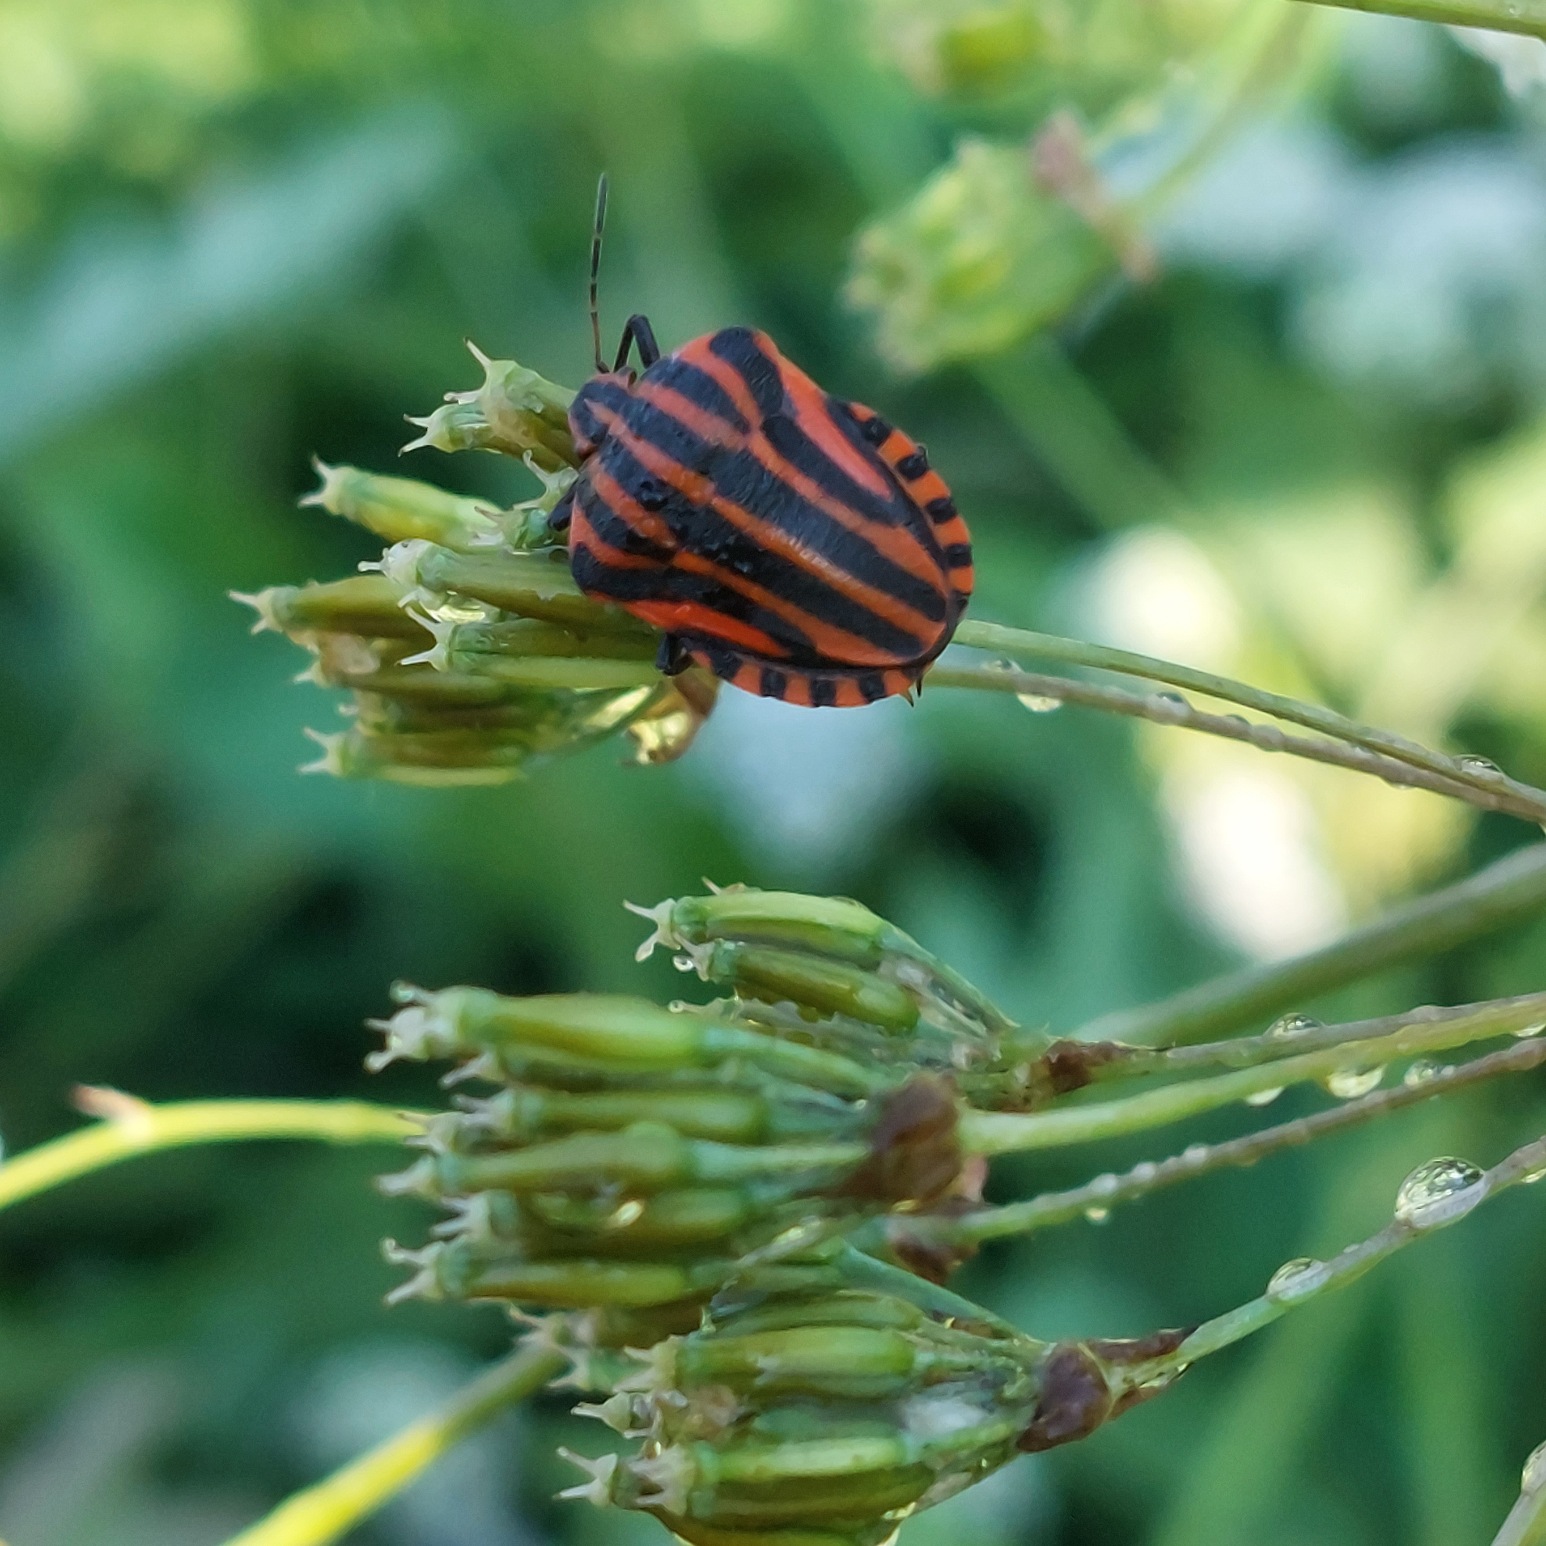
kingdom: Animalia
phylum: Arthropoda
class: Insecta
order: Hemiptera
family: Pentatomidae
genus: Graphosoma
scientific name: Graphosoma italicum
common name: Stribetæge
